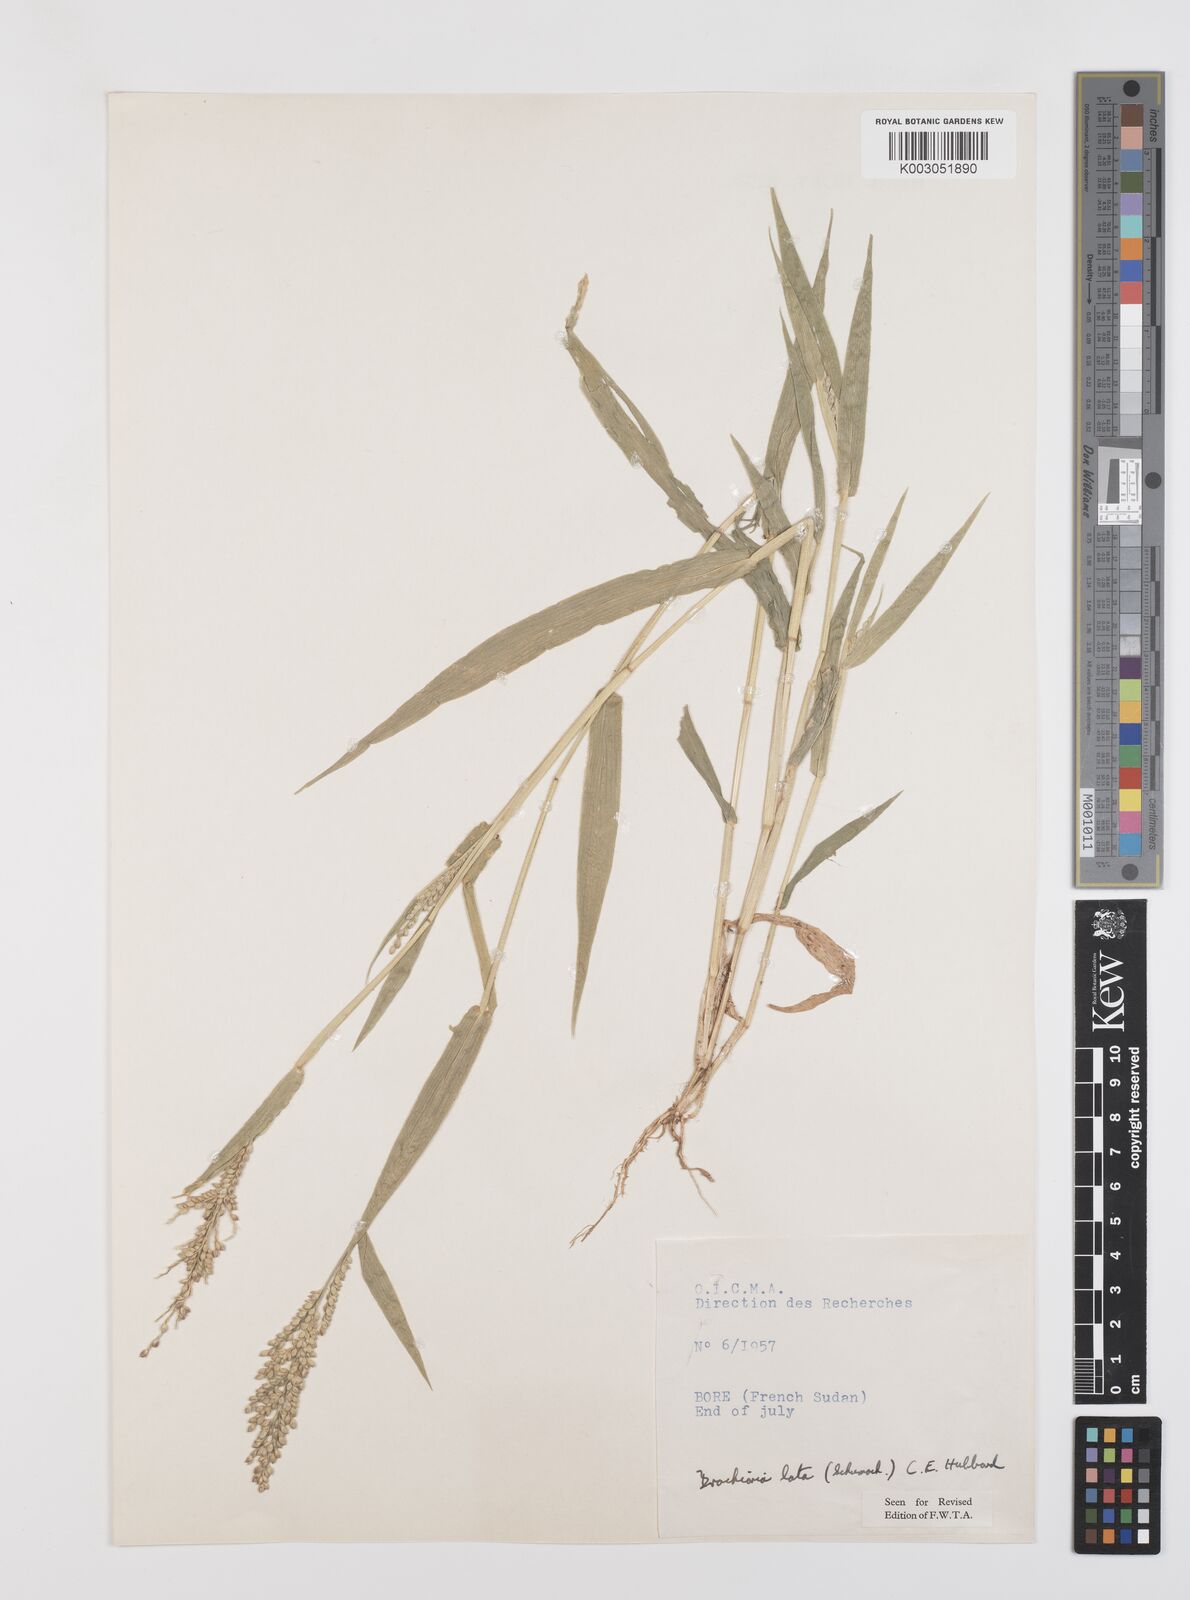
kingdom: Plantae
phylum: Tracheophyta
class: Liliopsida
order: Poales
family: Poaceae
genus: Urochloa
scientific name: Urochloa lata
